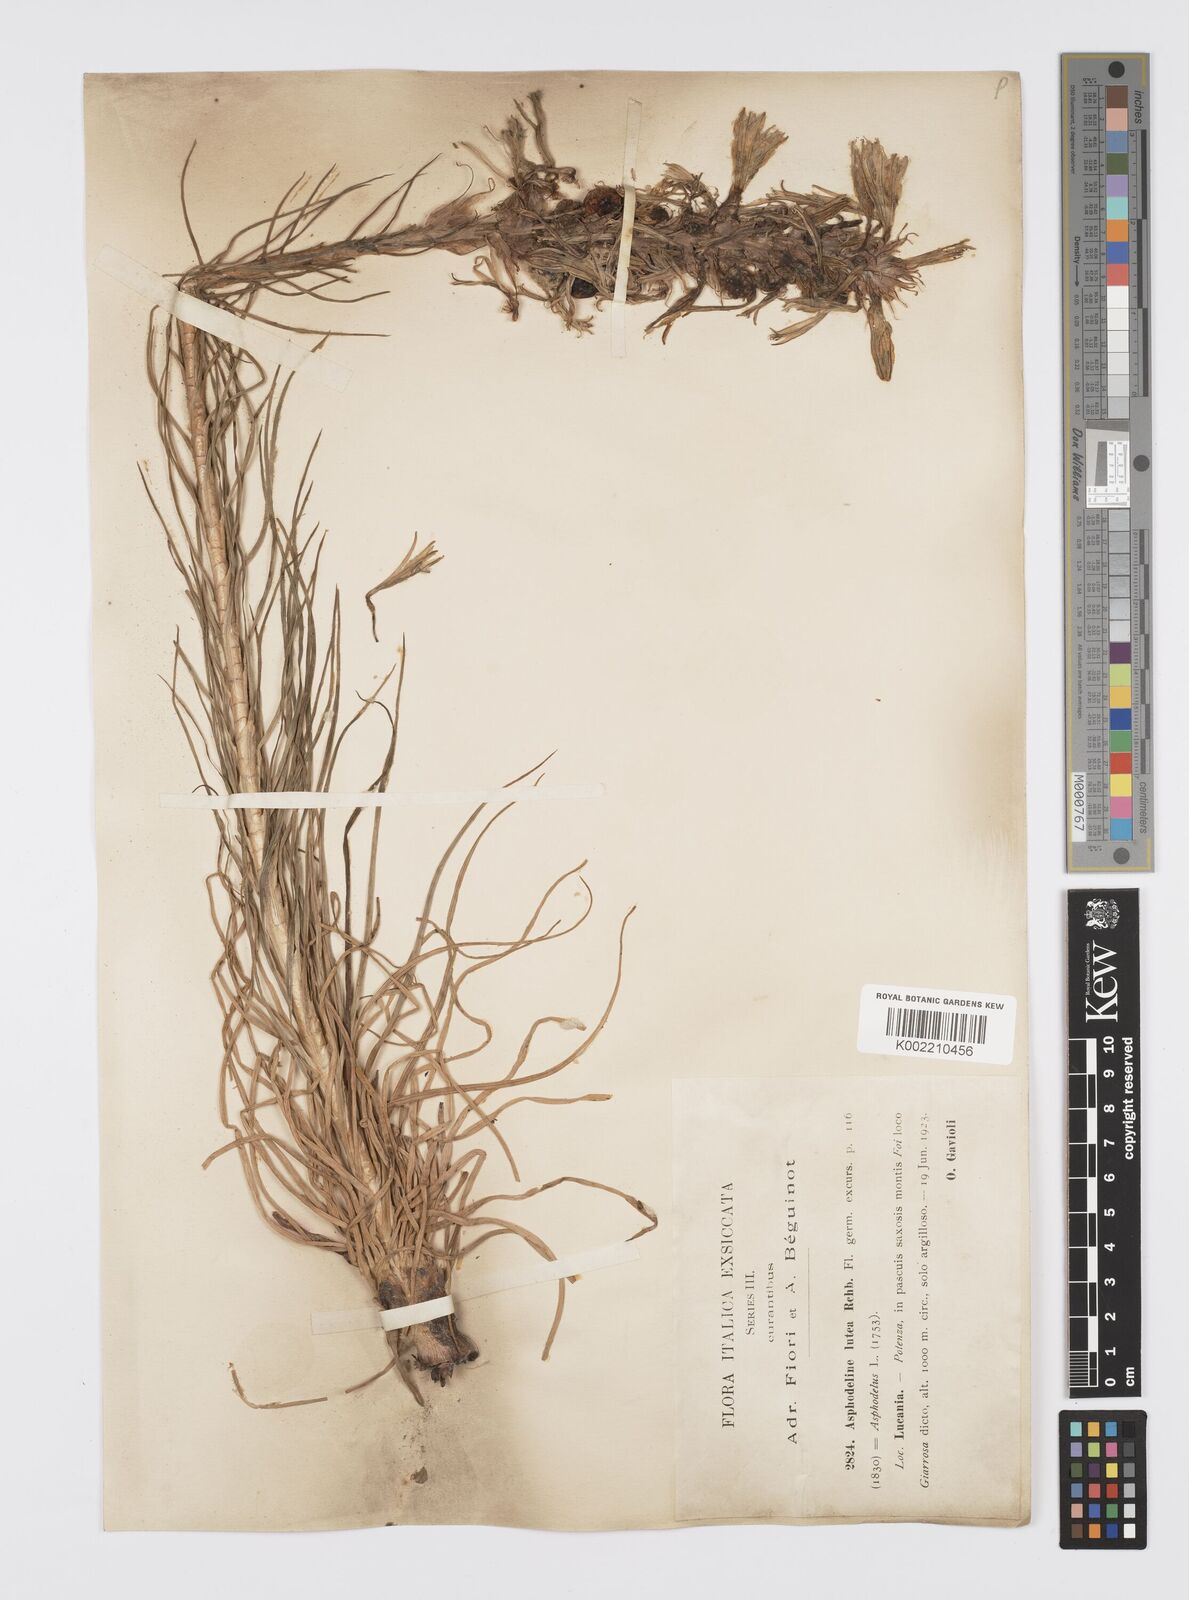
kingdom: Plantae
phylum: Tracheophyta
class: Liliopsida
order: Asparagales
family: Asphodelaceae
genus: Asphodeline
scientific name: Asphodeline lutea
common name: Yellow asphodel
